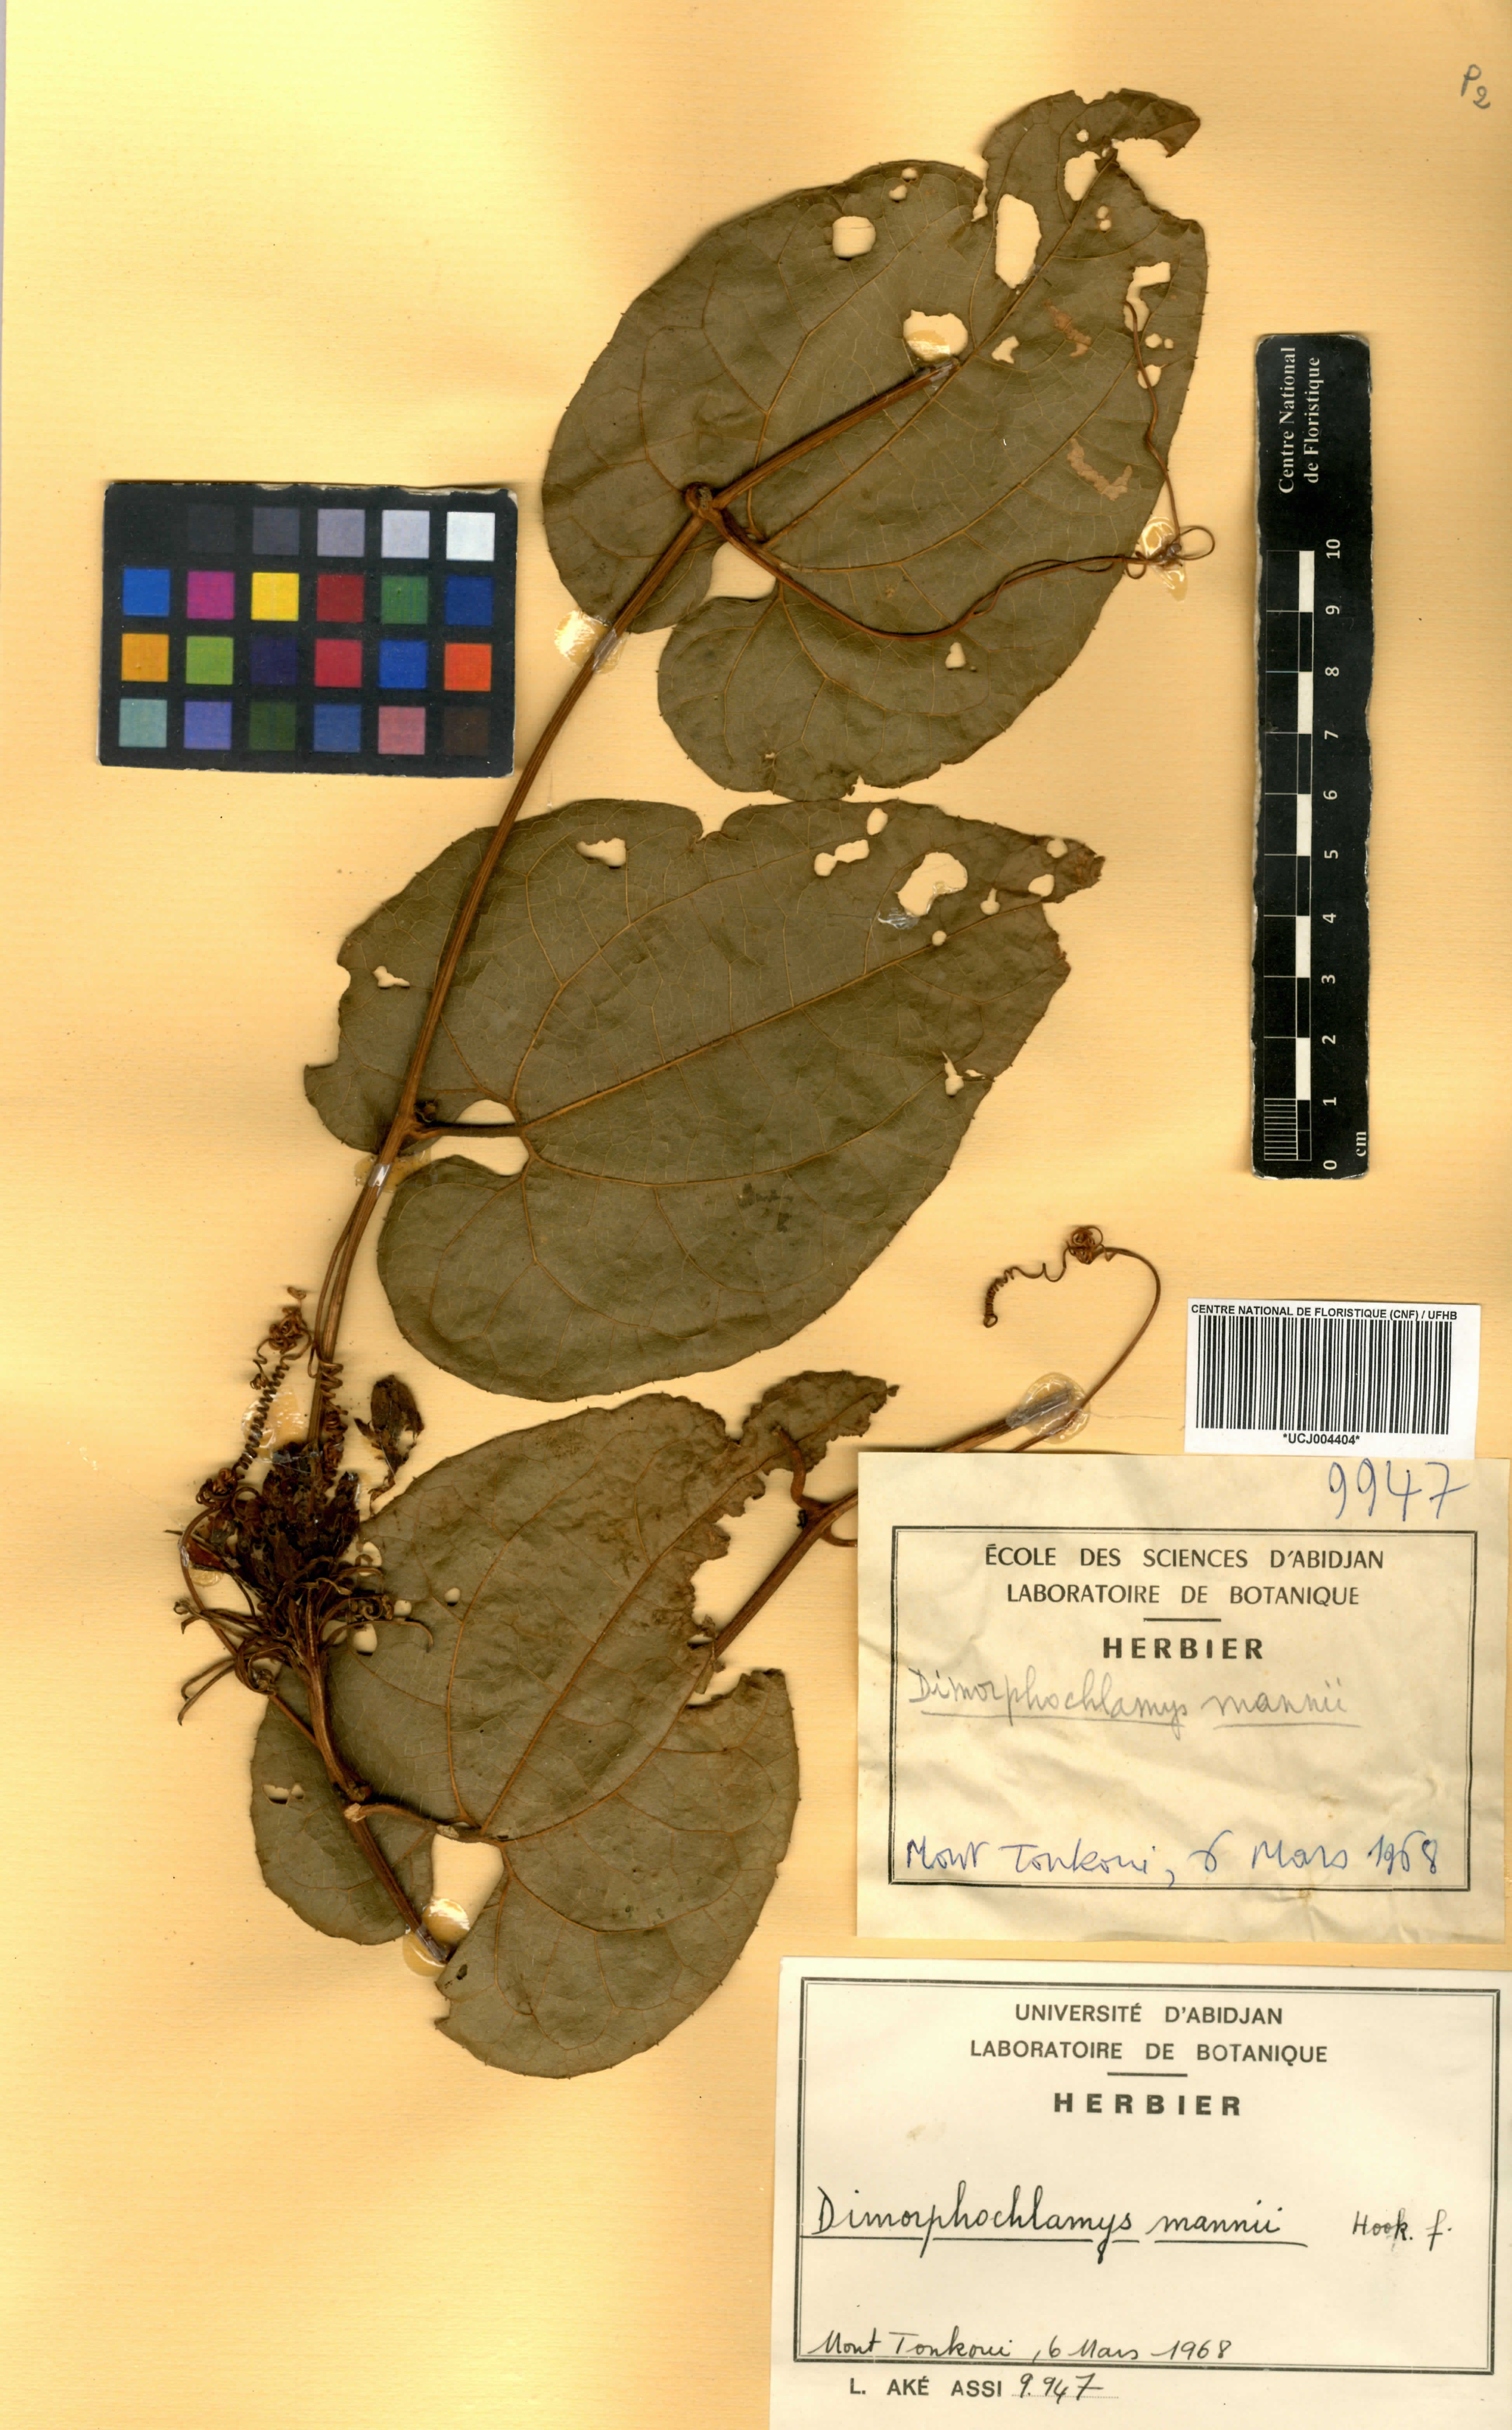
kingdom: Plantae
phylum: Tracheophyta
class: Magnoliopsida
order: Cucurbitales
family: Cucurbitaceae
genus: Momordica
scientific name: Momordica cabrae
